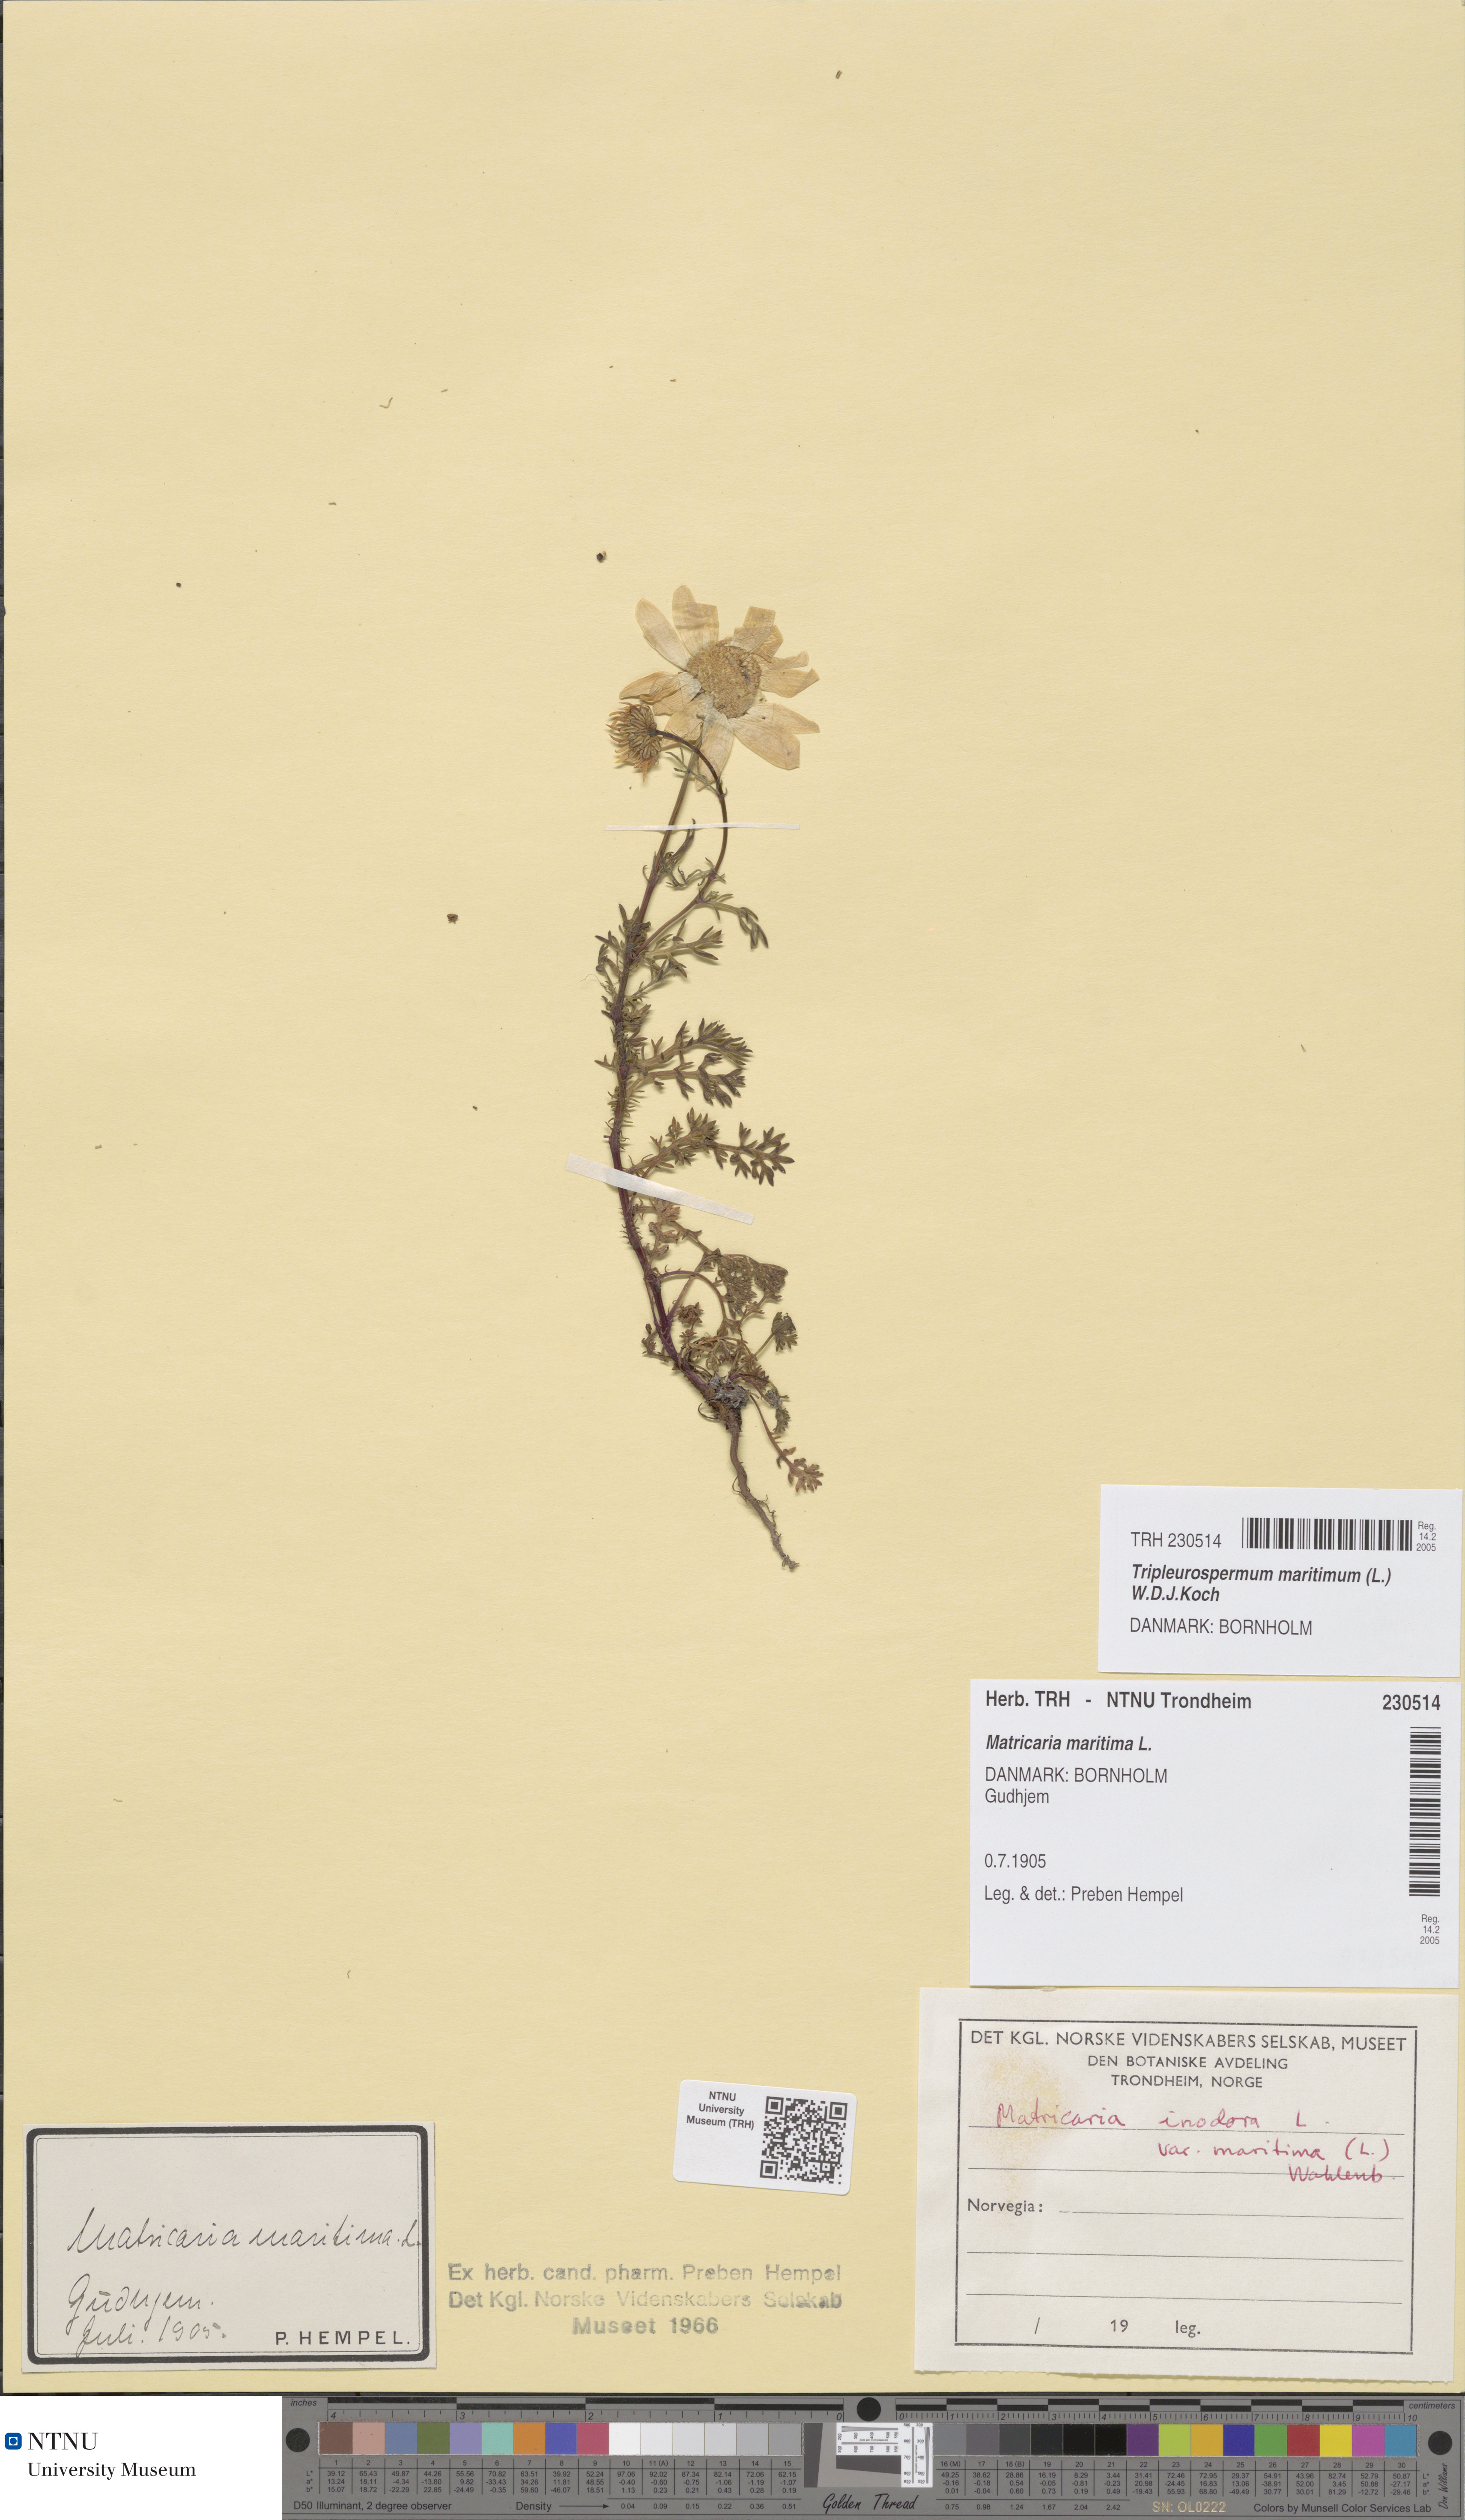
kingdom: Plantae
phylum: Tracheophyta
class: Magnoliopsida
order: Asterales
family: Asteraceae
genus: Tripleurospermum
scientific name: Tripleurospermum maritimum
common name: Sea mayweed
